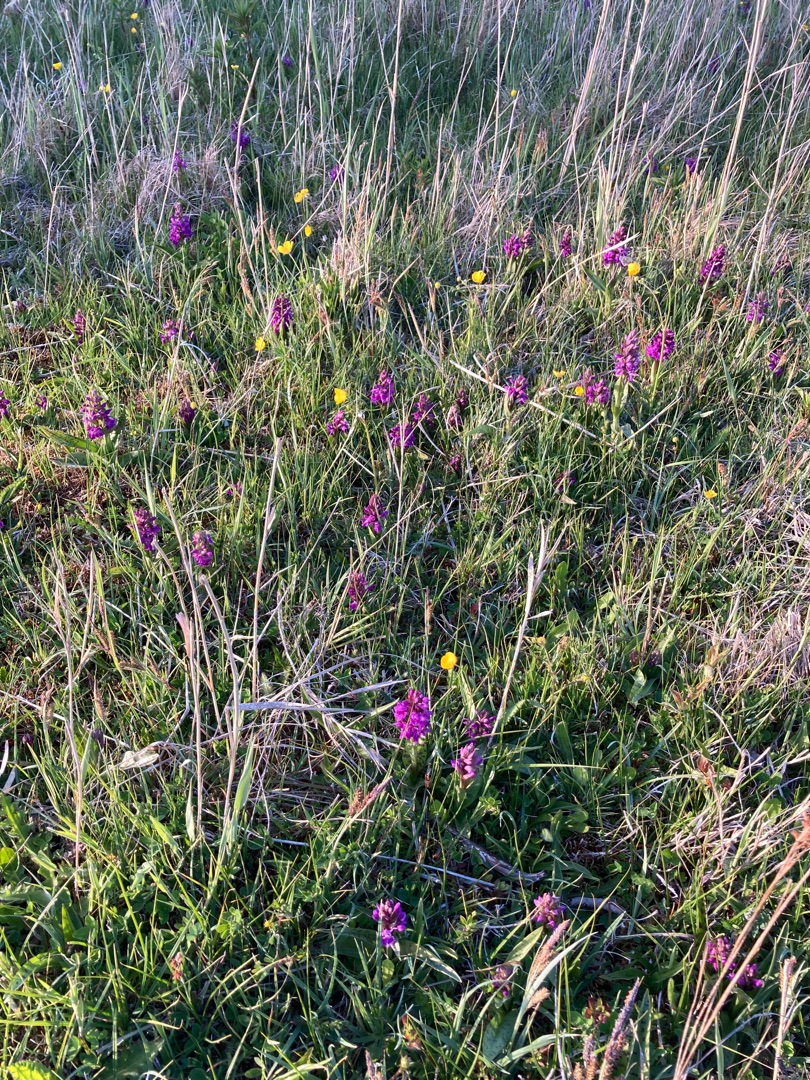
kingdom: Plantae
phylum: Tracheophyta
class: Liliopsida
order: Asparagales
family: Orchidaceae
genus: Dactylorhiza
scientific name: Dactylorhiza majalis
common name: Maj-gøgeurt
